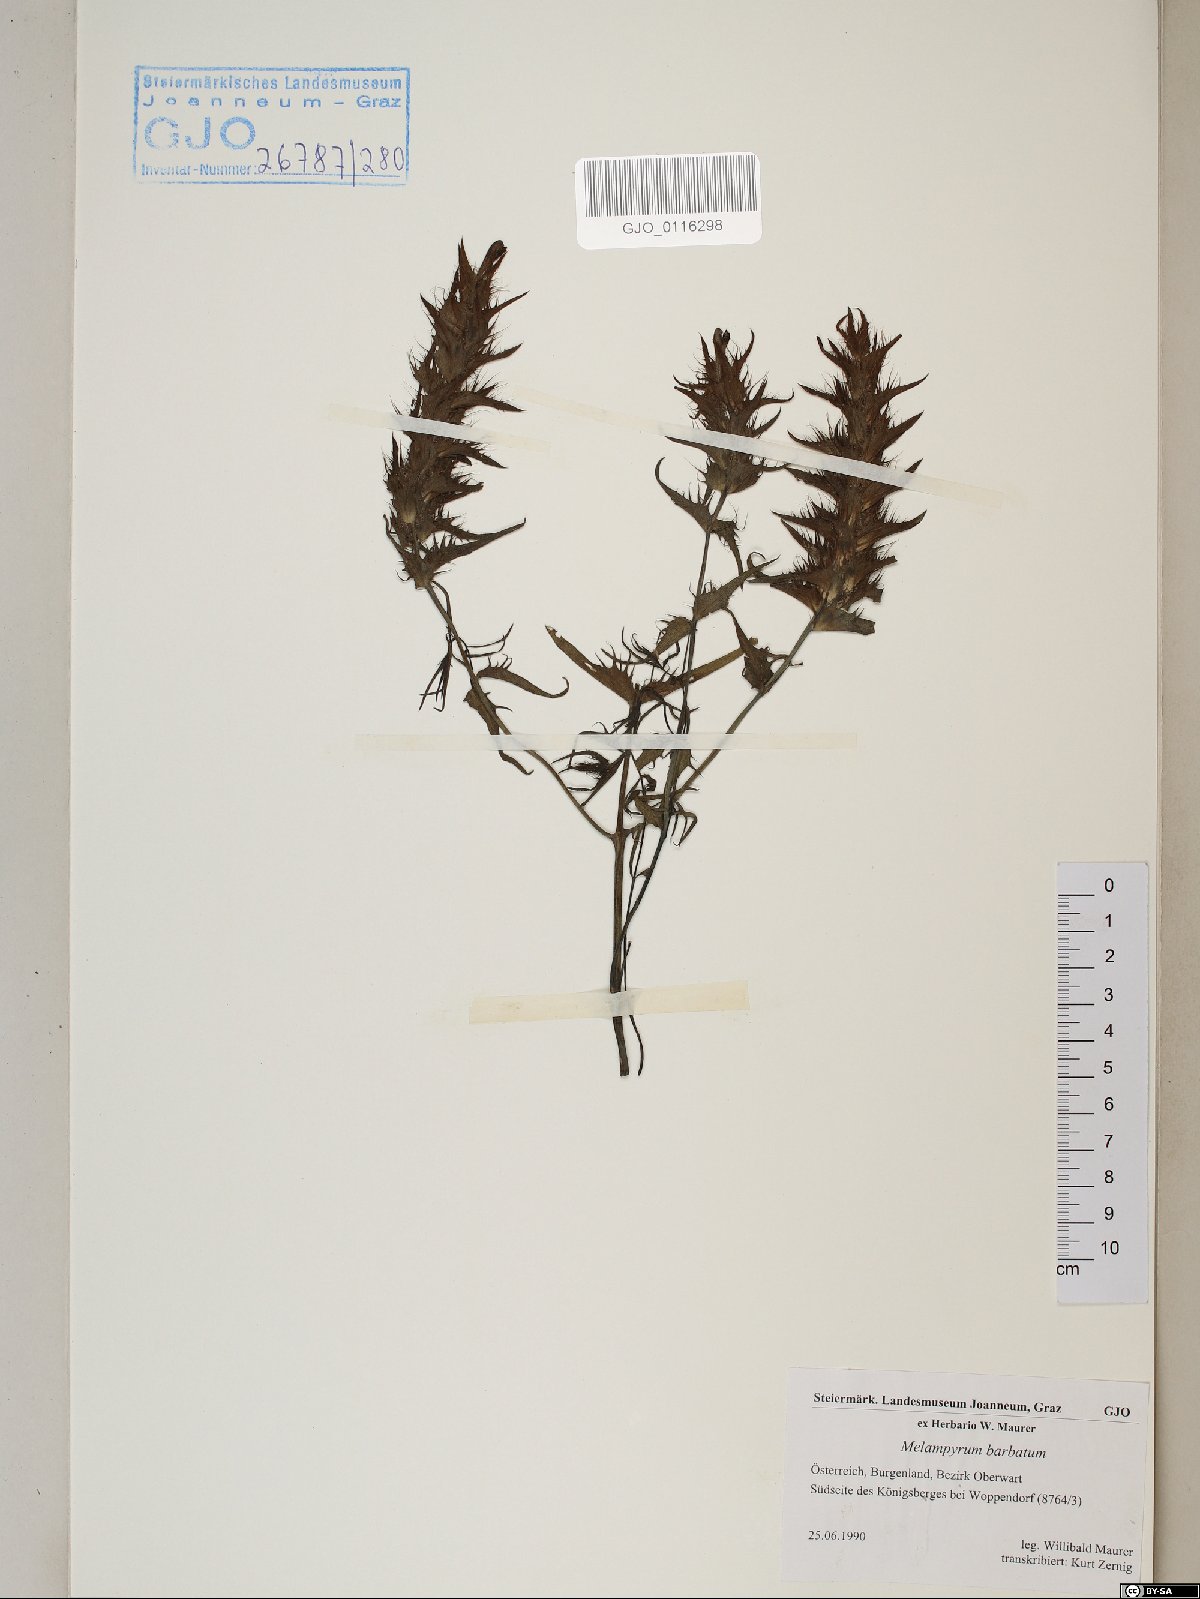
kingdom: Plantae
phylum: Tracheophyta
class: Magnoliopsida
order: Lamiales
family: Orobanchaceae
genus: Melampyrum
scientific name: Melampyrum barbatum
